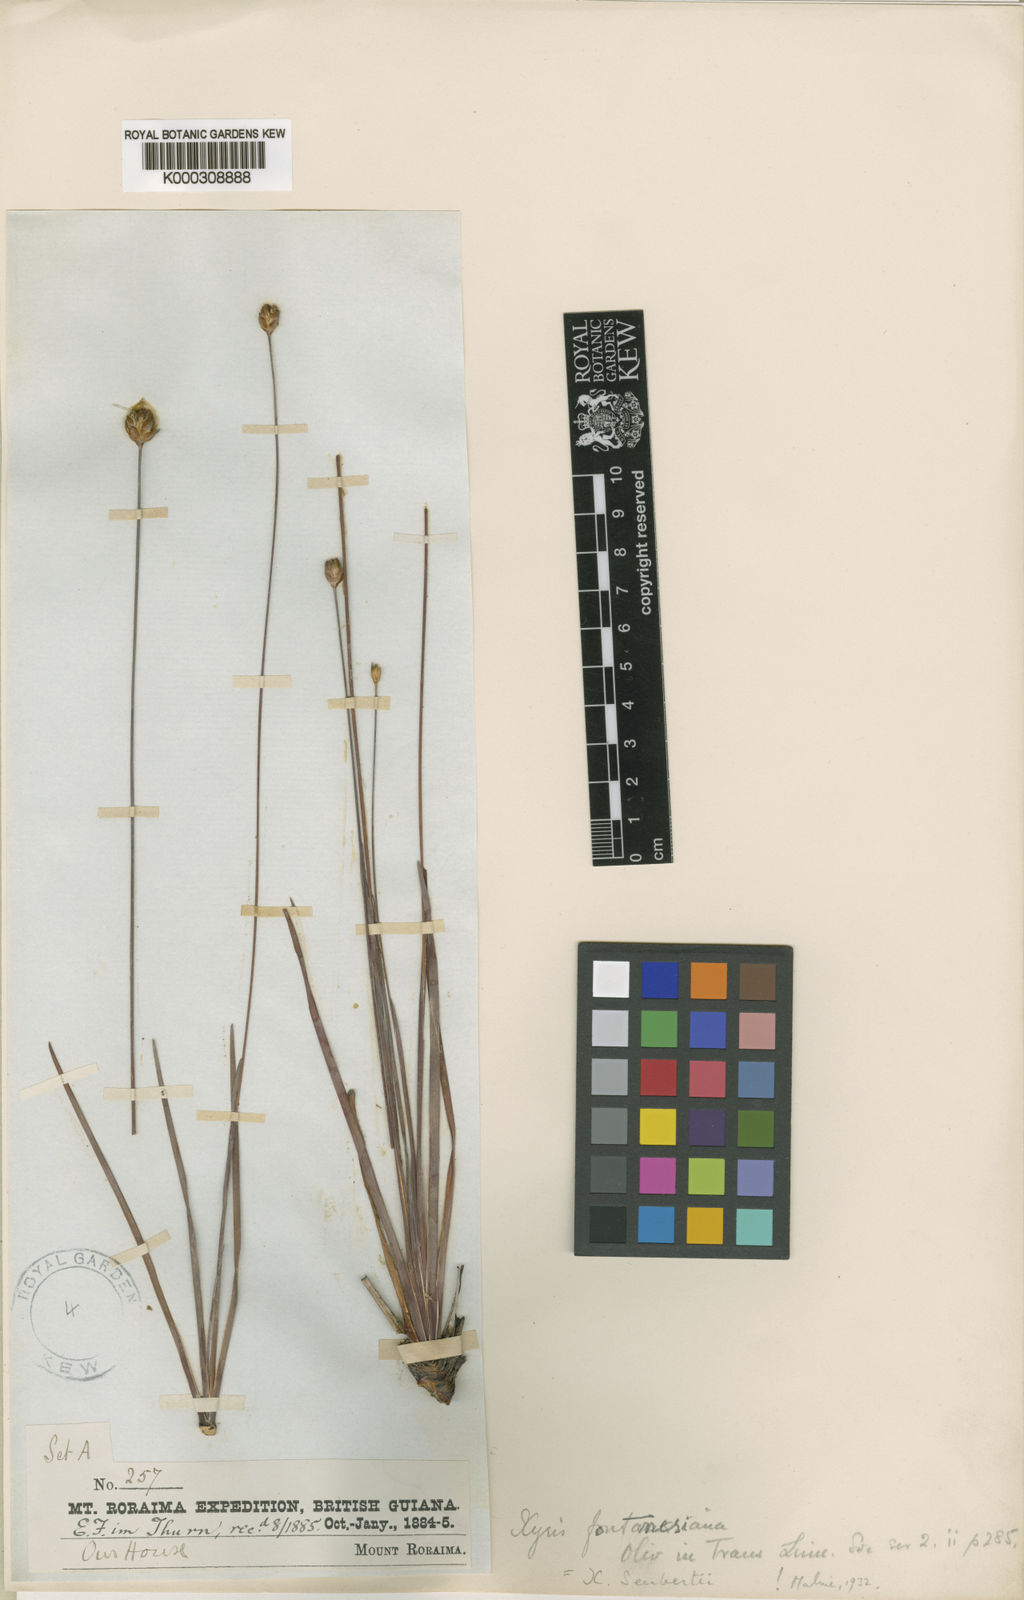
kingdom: Plantae
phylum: Tracheophyta
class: Liliopsida
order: Poales
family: Xyridaceae
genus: Xyris
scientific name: Xyris seubertii
